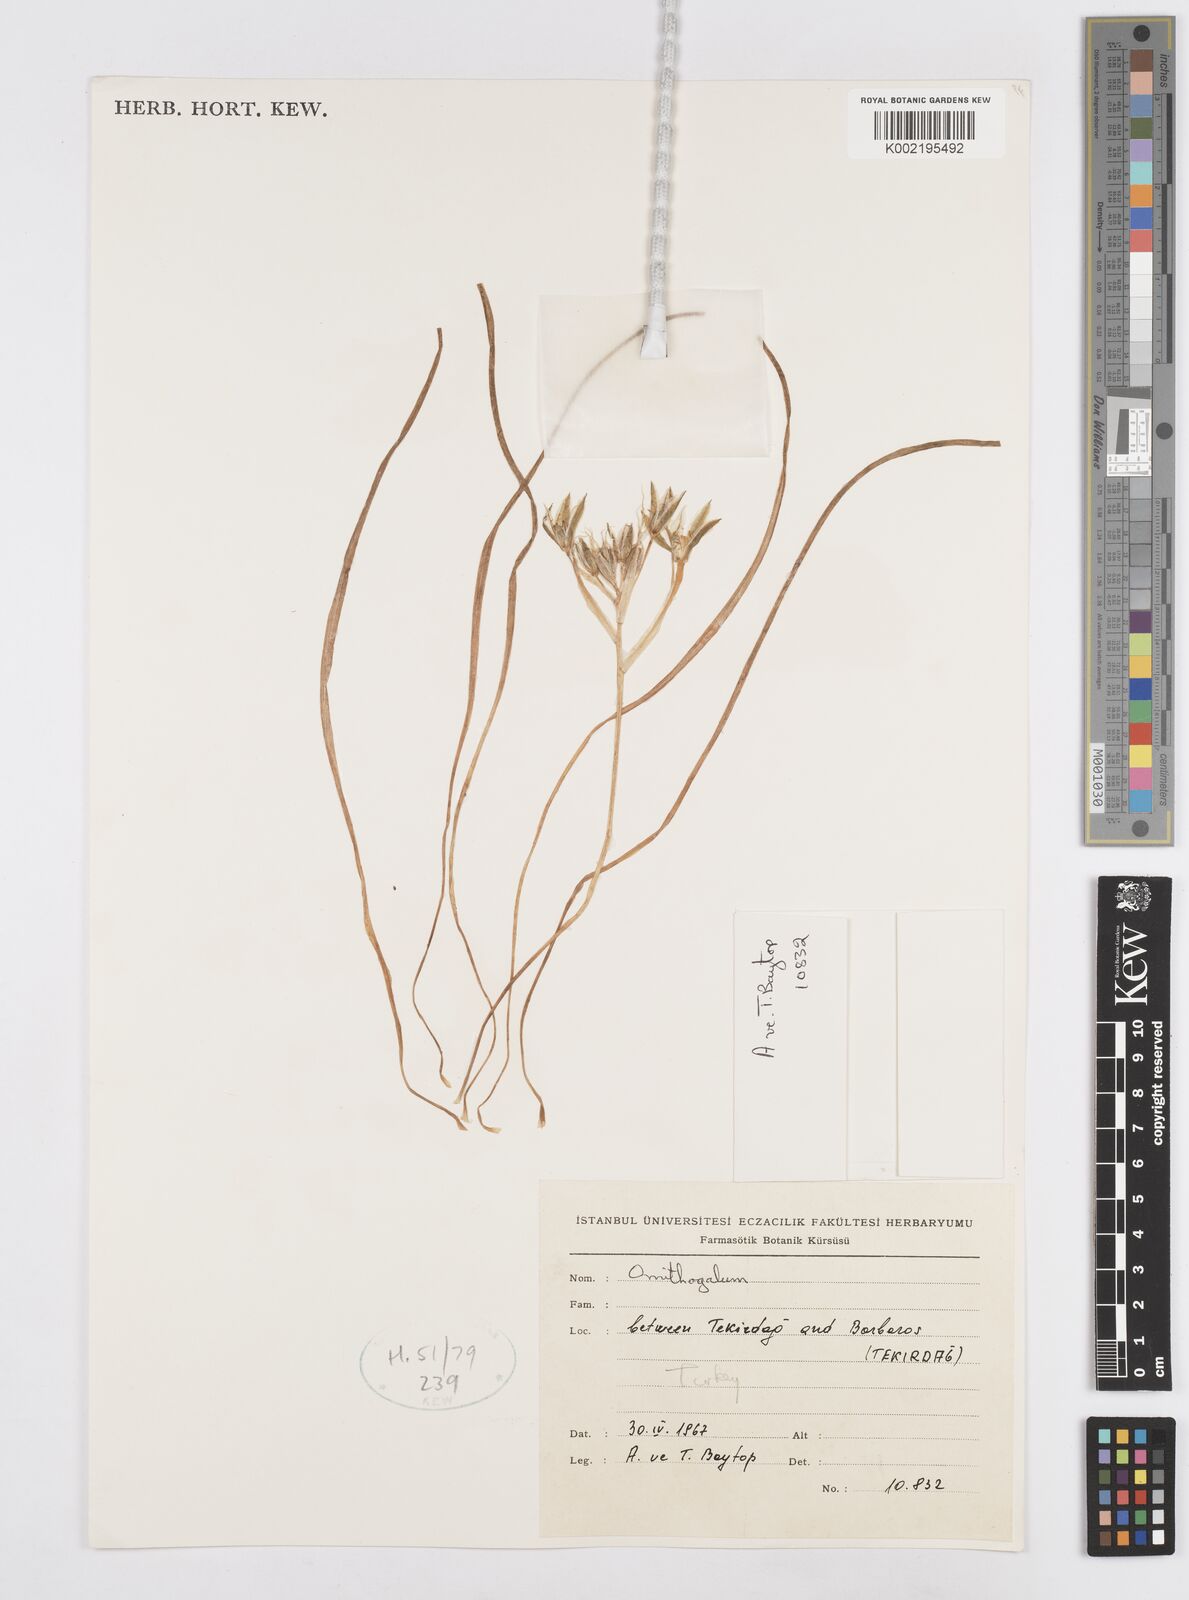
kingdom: Plantae
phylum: Tracheophyta
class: Liliopsida
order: Asparagales
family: Asparagaceae
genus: Ornithogalum
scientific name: Ornithogalum
